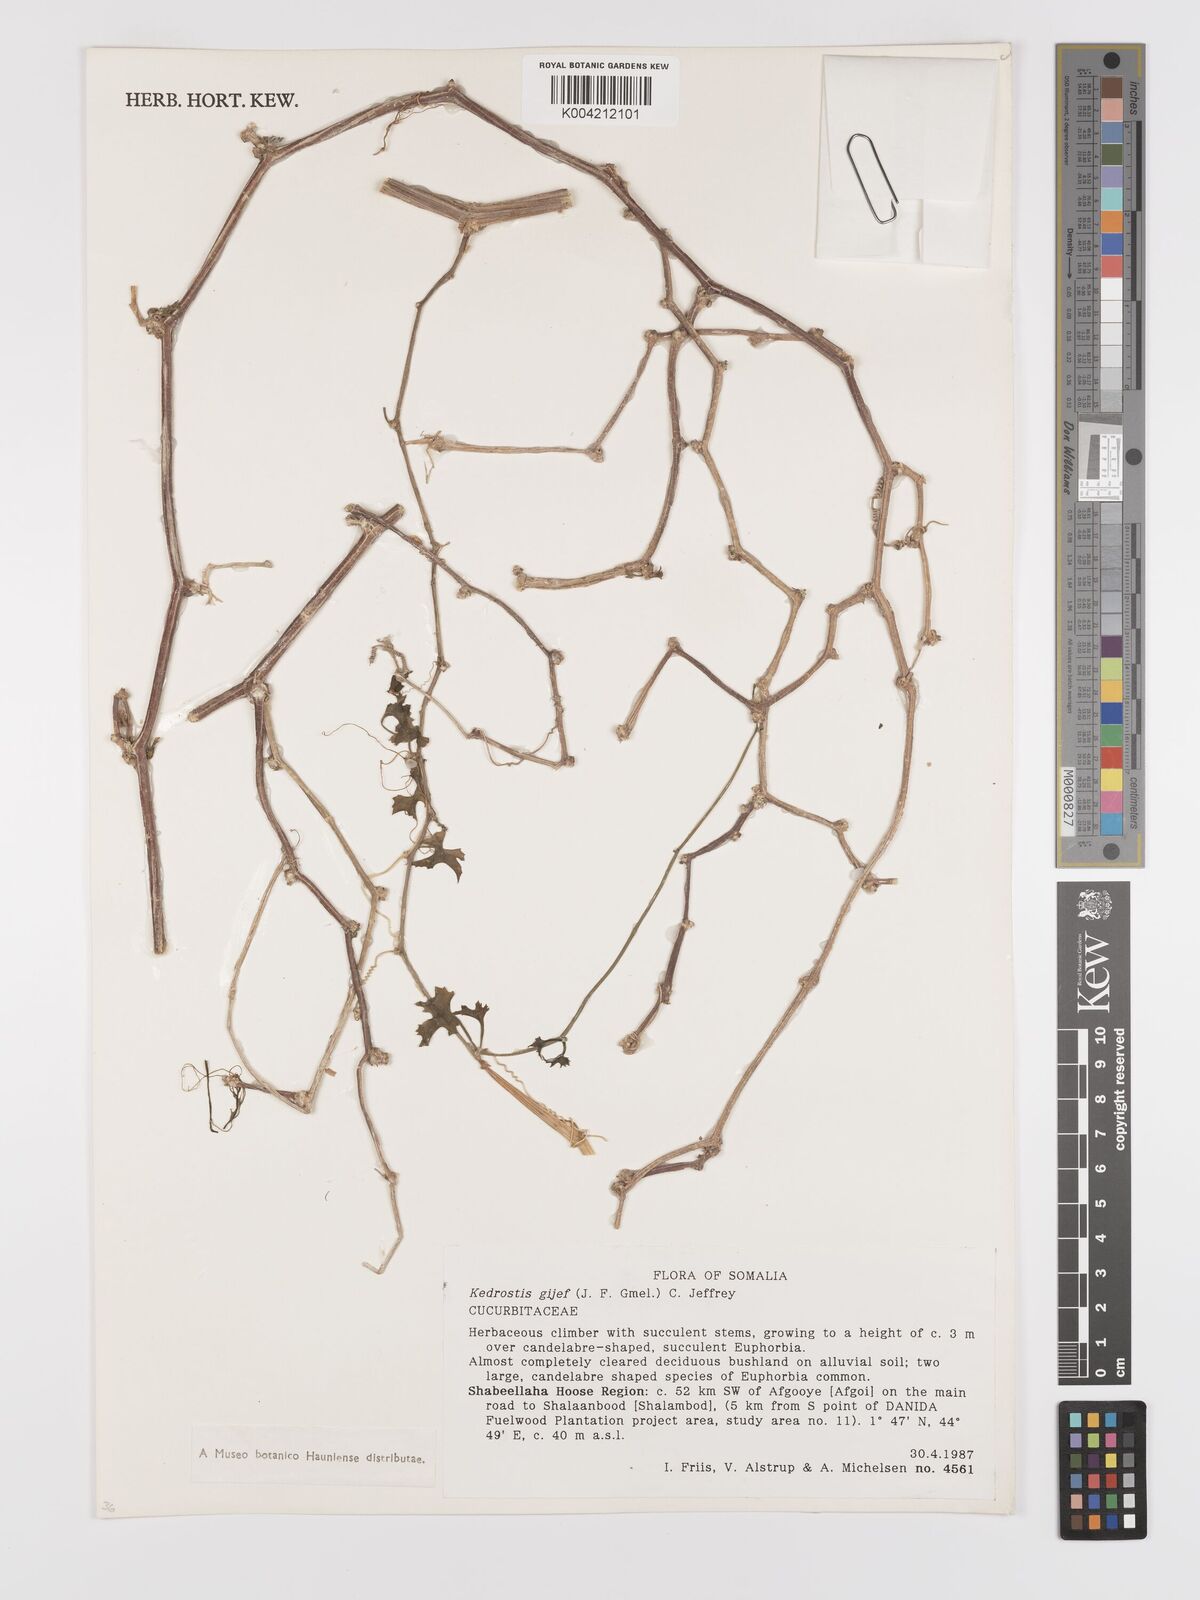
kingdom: Plantae
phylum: Tracheophyta
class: Magnoliopsida
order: Cucurbitales
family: Cucurbitaceae
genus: Kedrostis
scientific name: Kedrostis gijef
